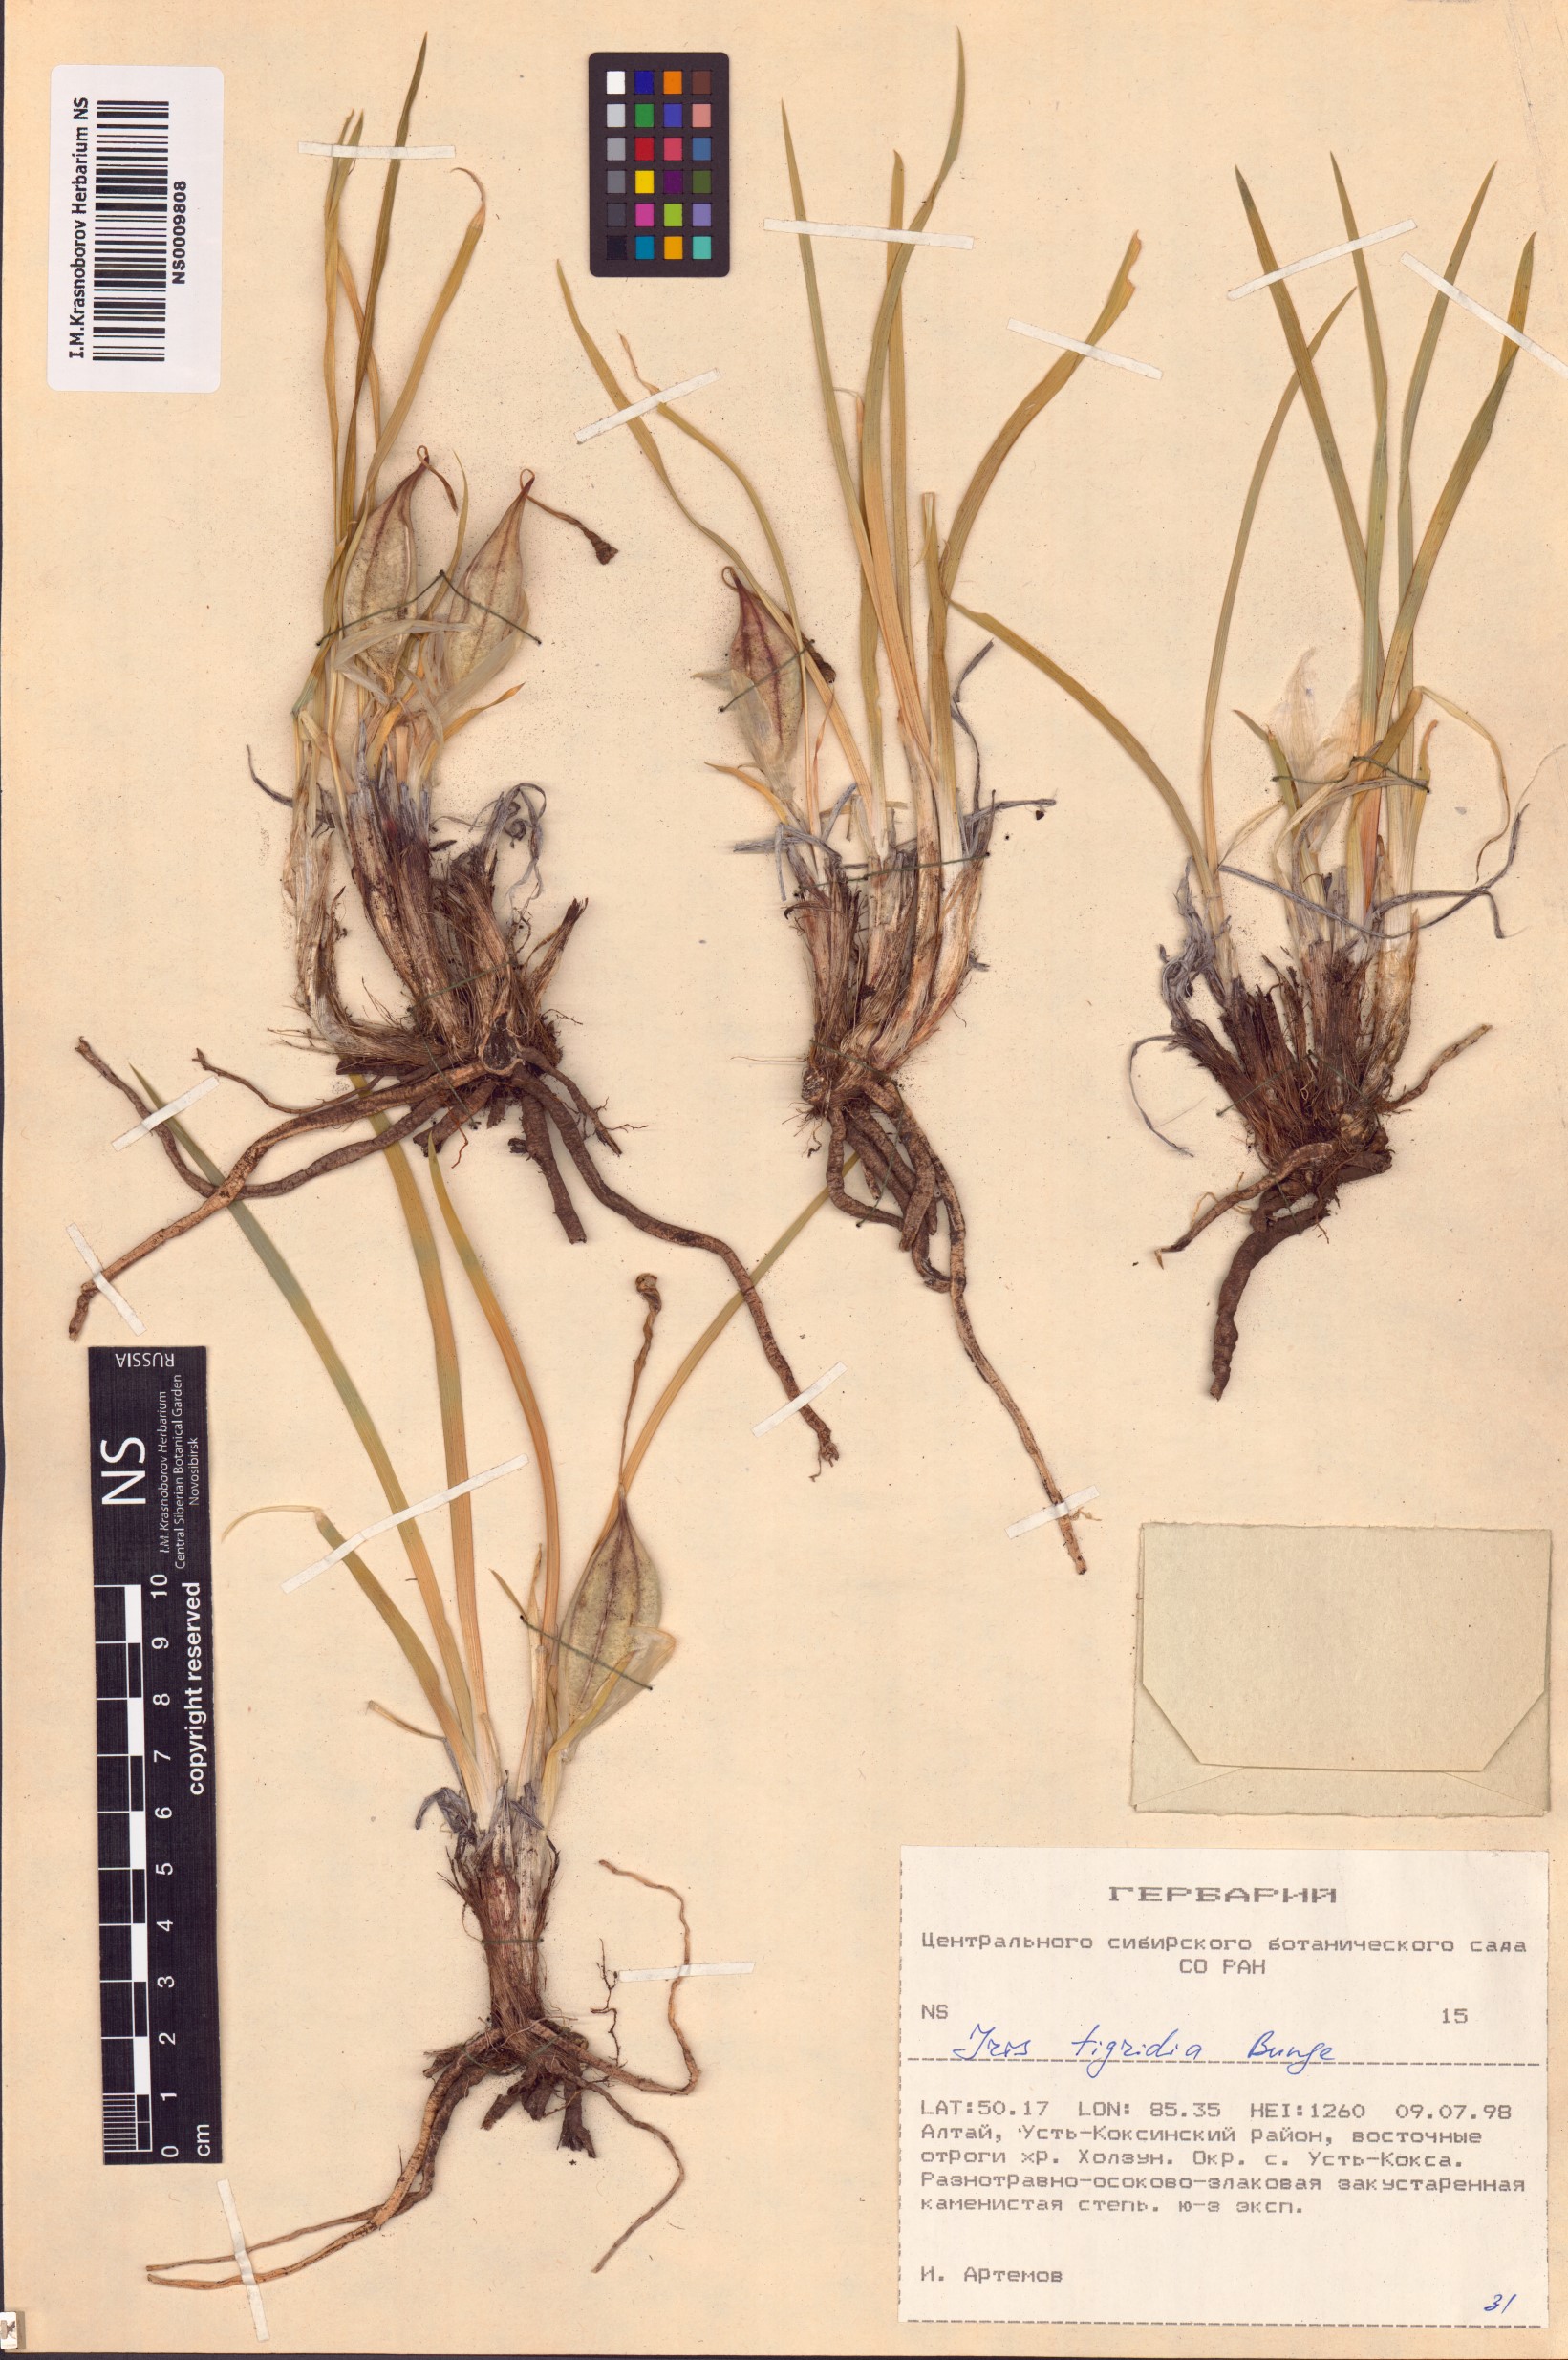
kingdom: Plantae
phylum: Tracheophyta
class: Liliopsida
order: Asparagales
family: Iridaceae
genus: Iris
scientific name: Iris tigridia
